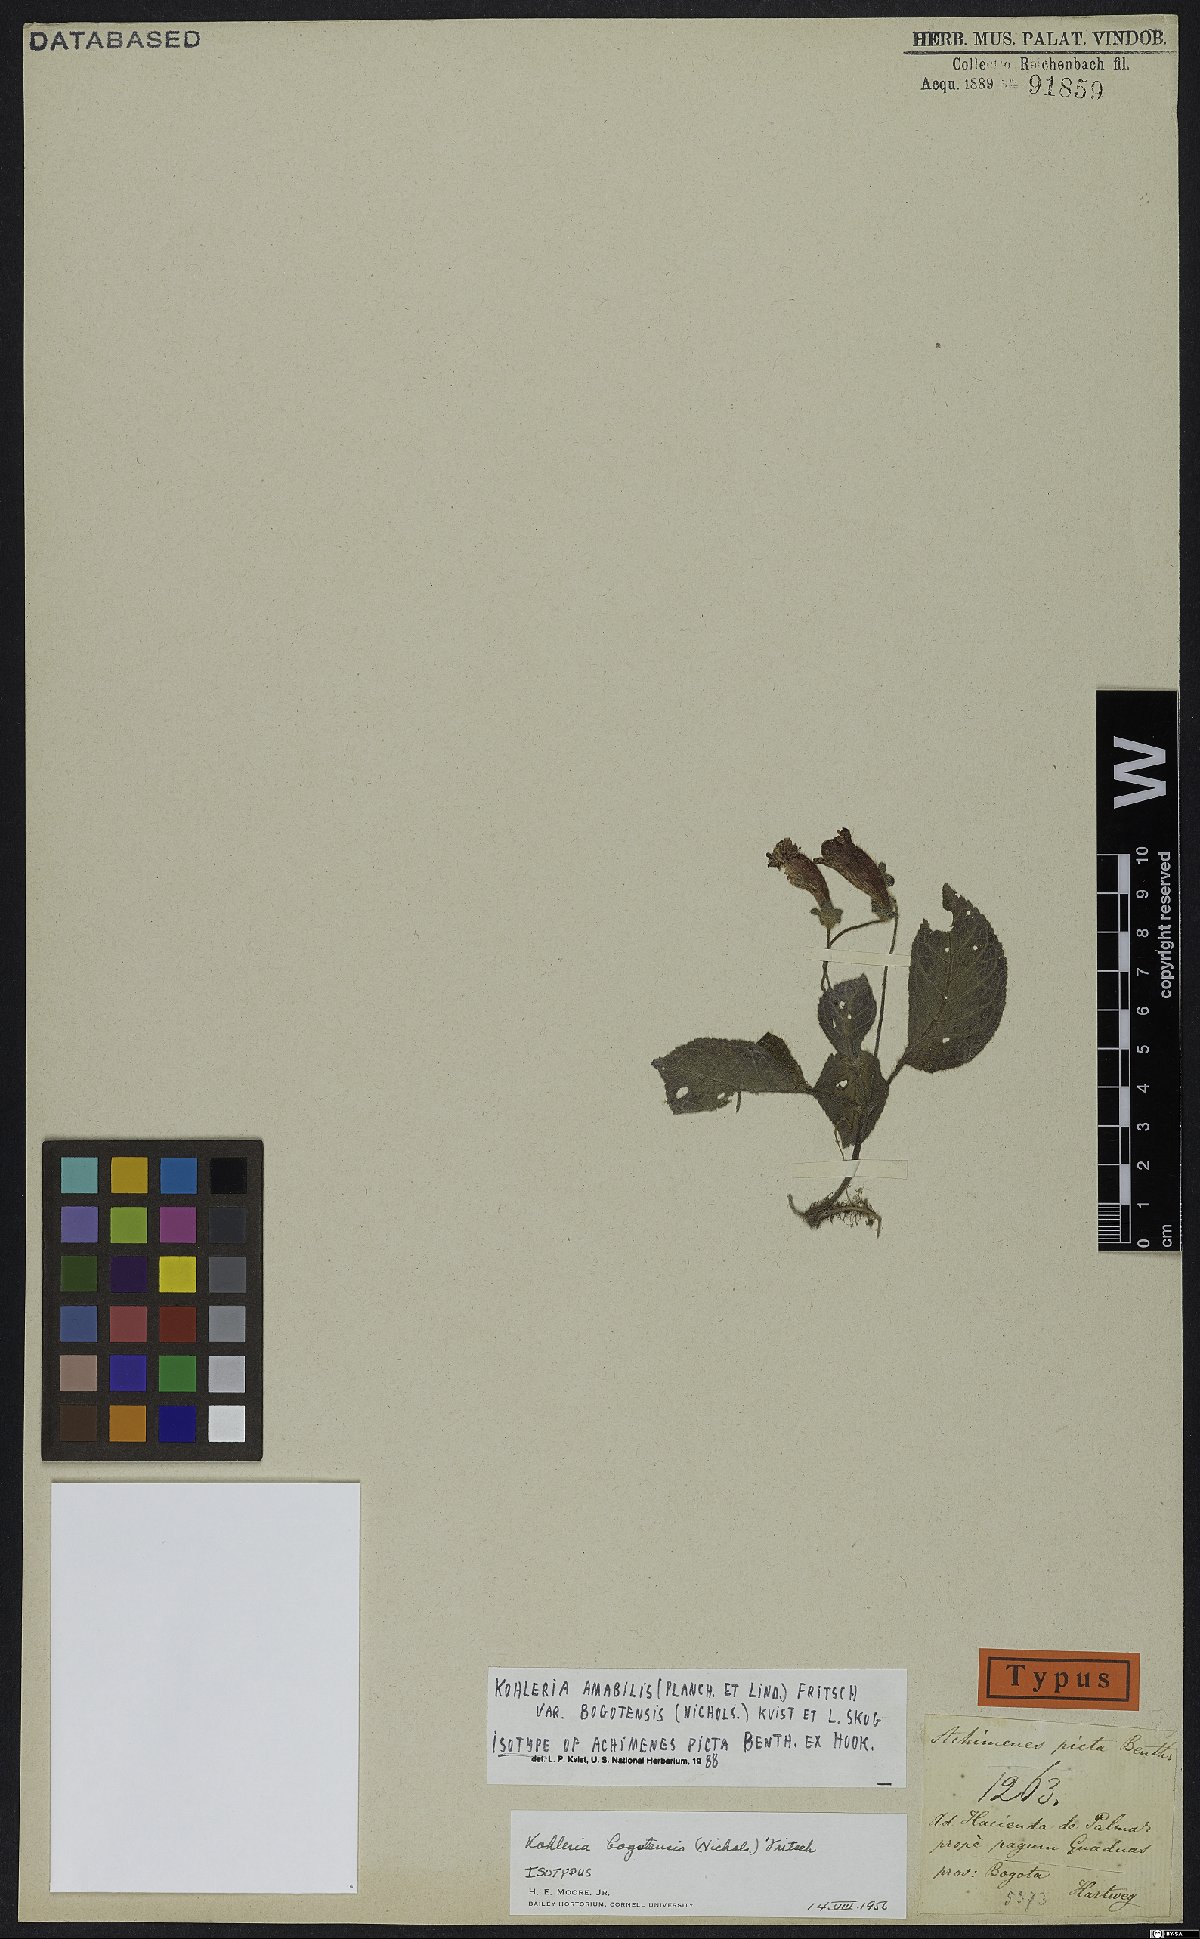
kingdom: Plantae
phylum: Tracheophyta
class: Magnoliopsida
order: Lamiales
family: Gesneriaceae
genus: Kohleria
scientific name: Kohleria amabilis
